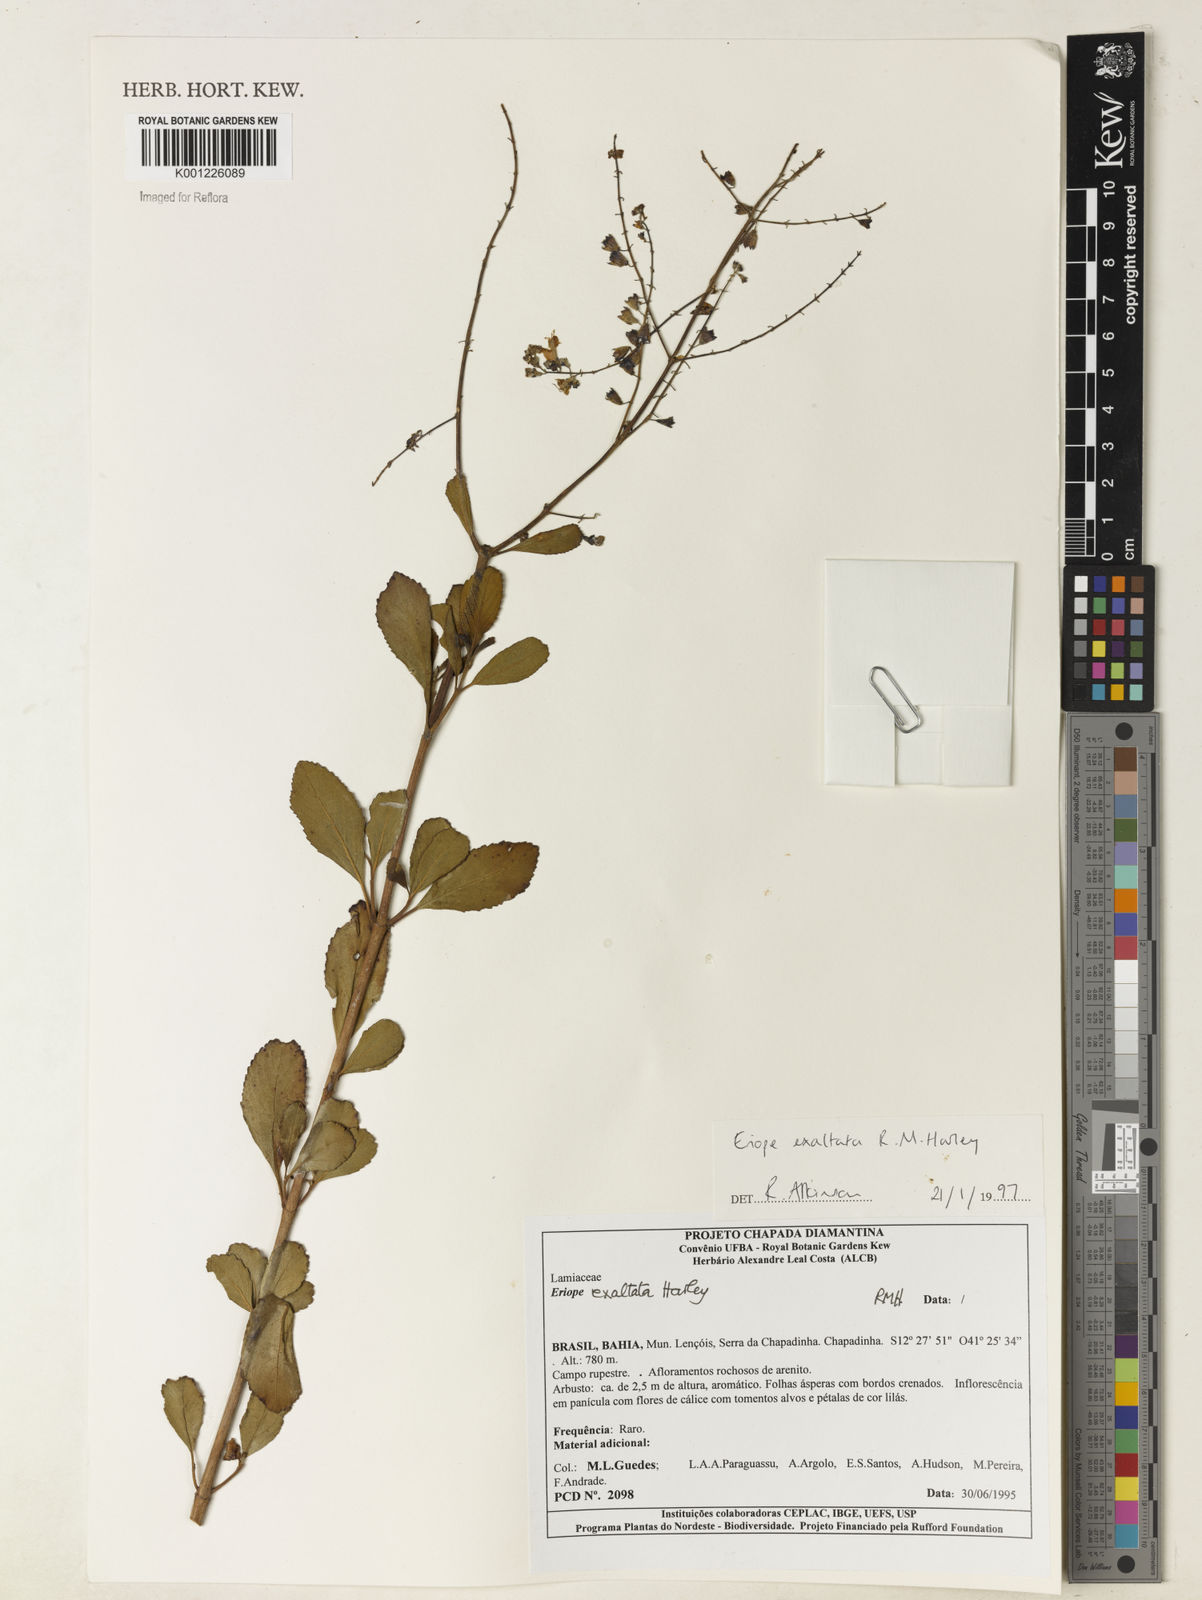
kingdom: Plantae
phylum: Tracheophyta
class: Magnoliopsida
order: Lamiales
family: Lamiaceae
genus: Eriope
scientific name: Eriope exaltata
